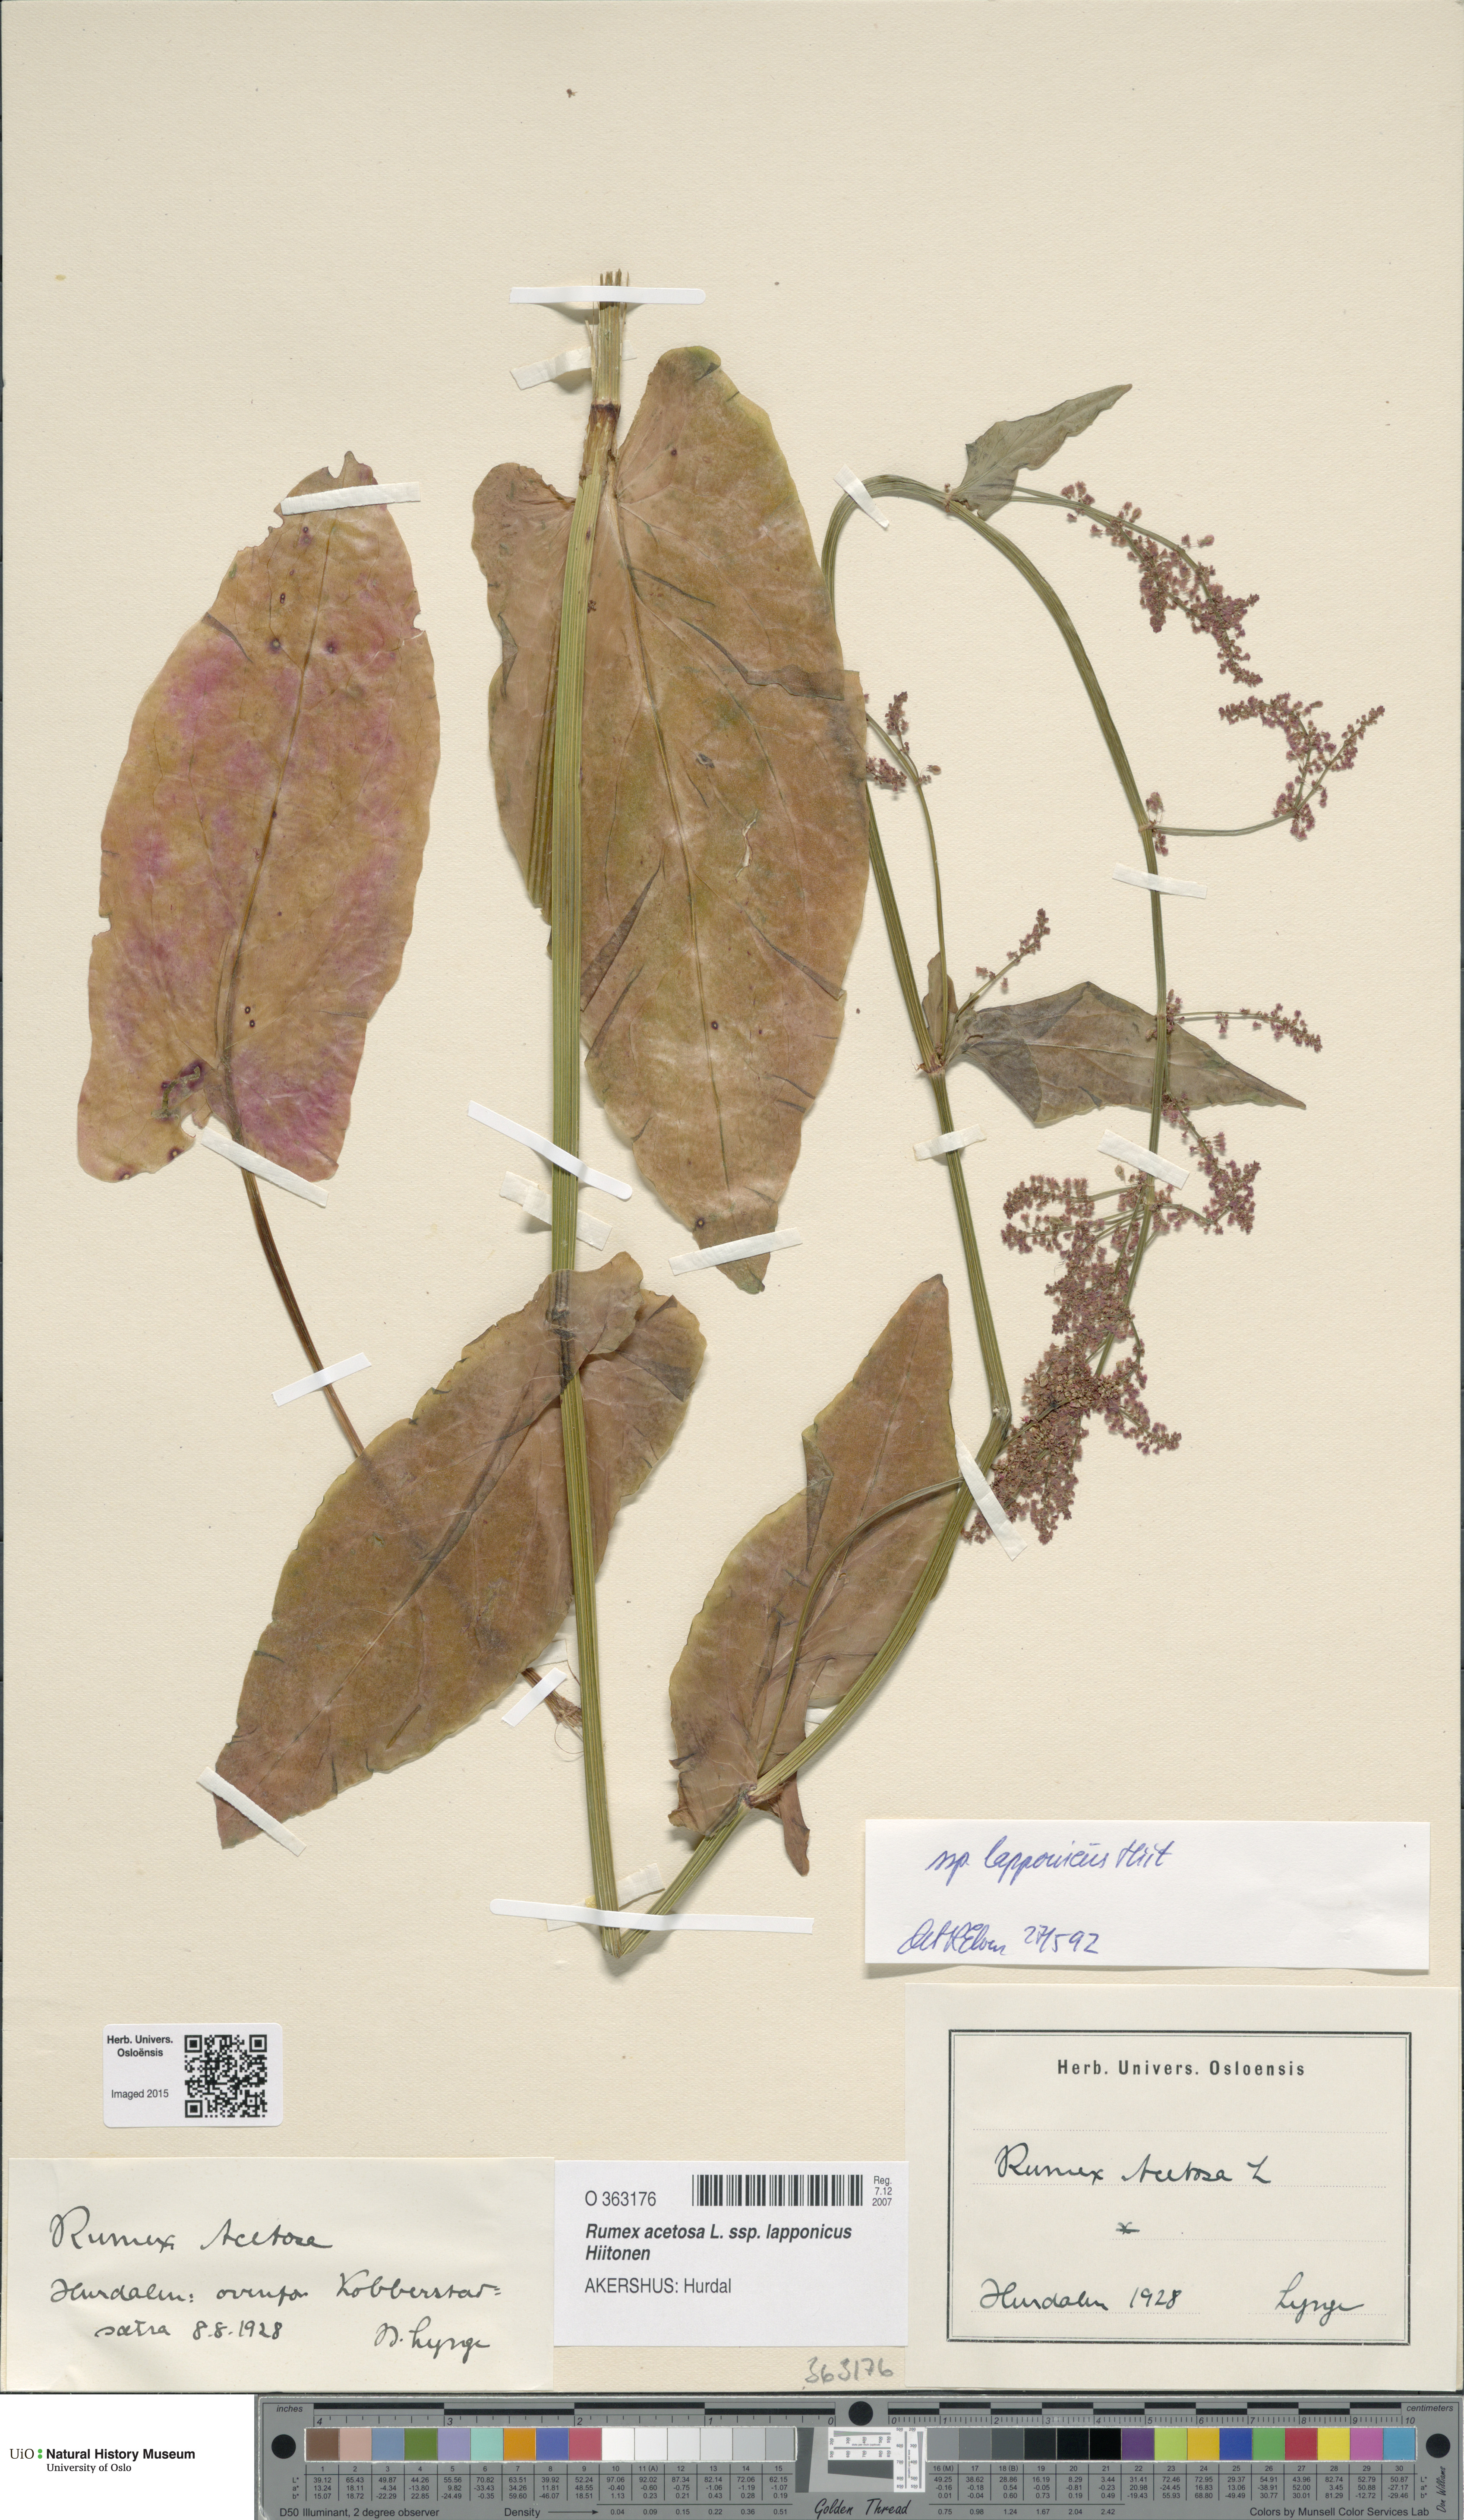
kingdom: Plantae
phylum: Tracheophyta
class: Magnoliopsida
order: Caryophyllales
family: Polygonaceae
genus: Rumex
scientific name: Rumex lapponicus
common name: Lapland mountain sorrel
